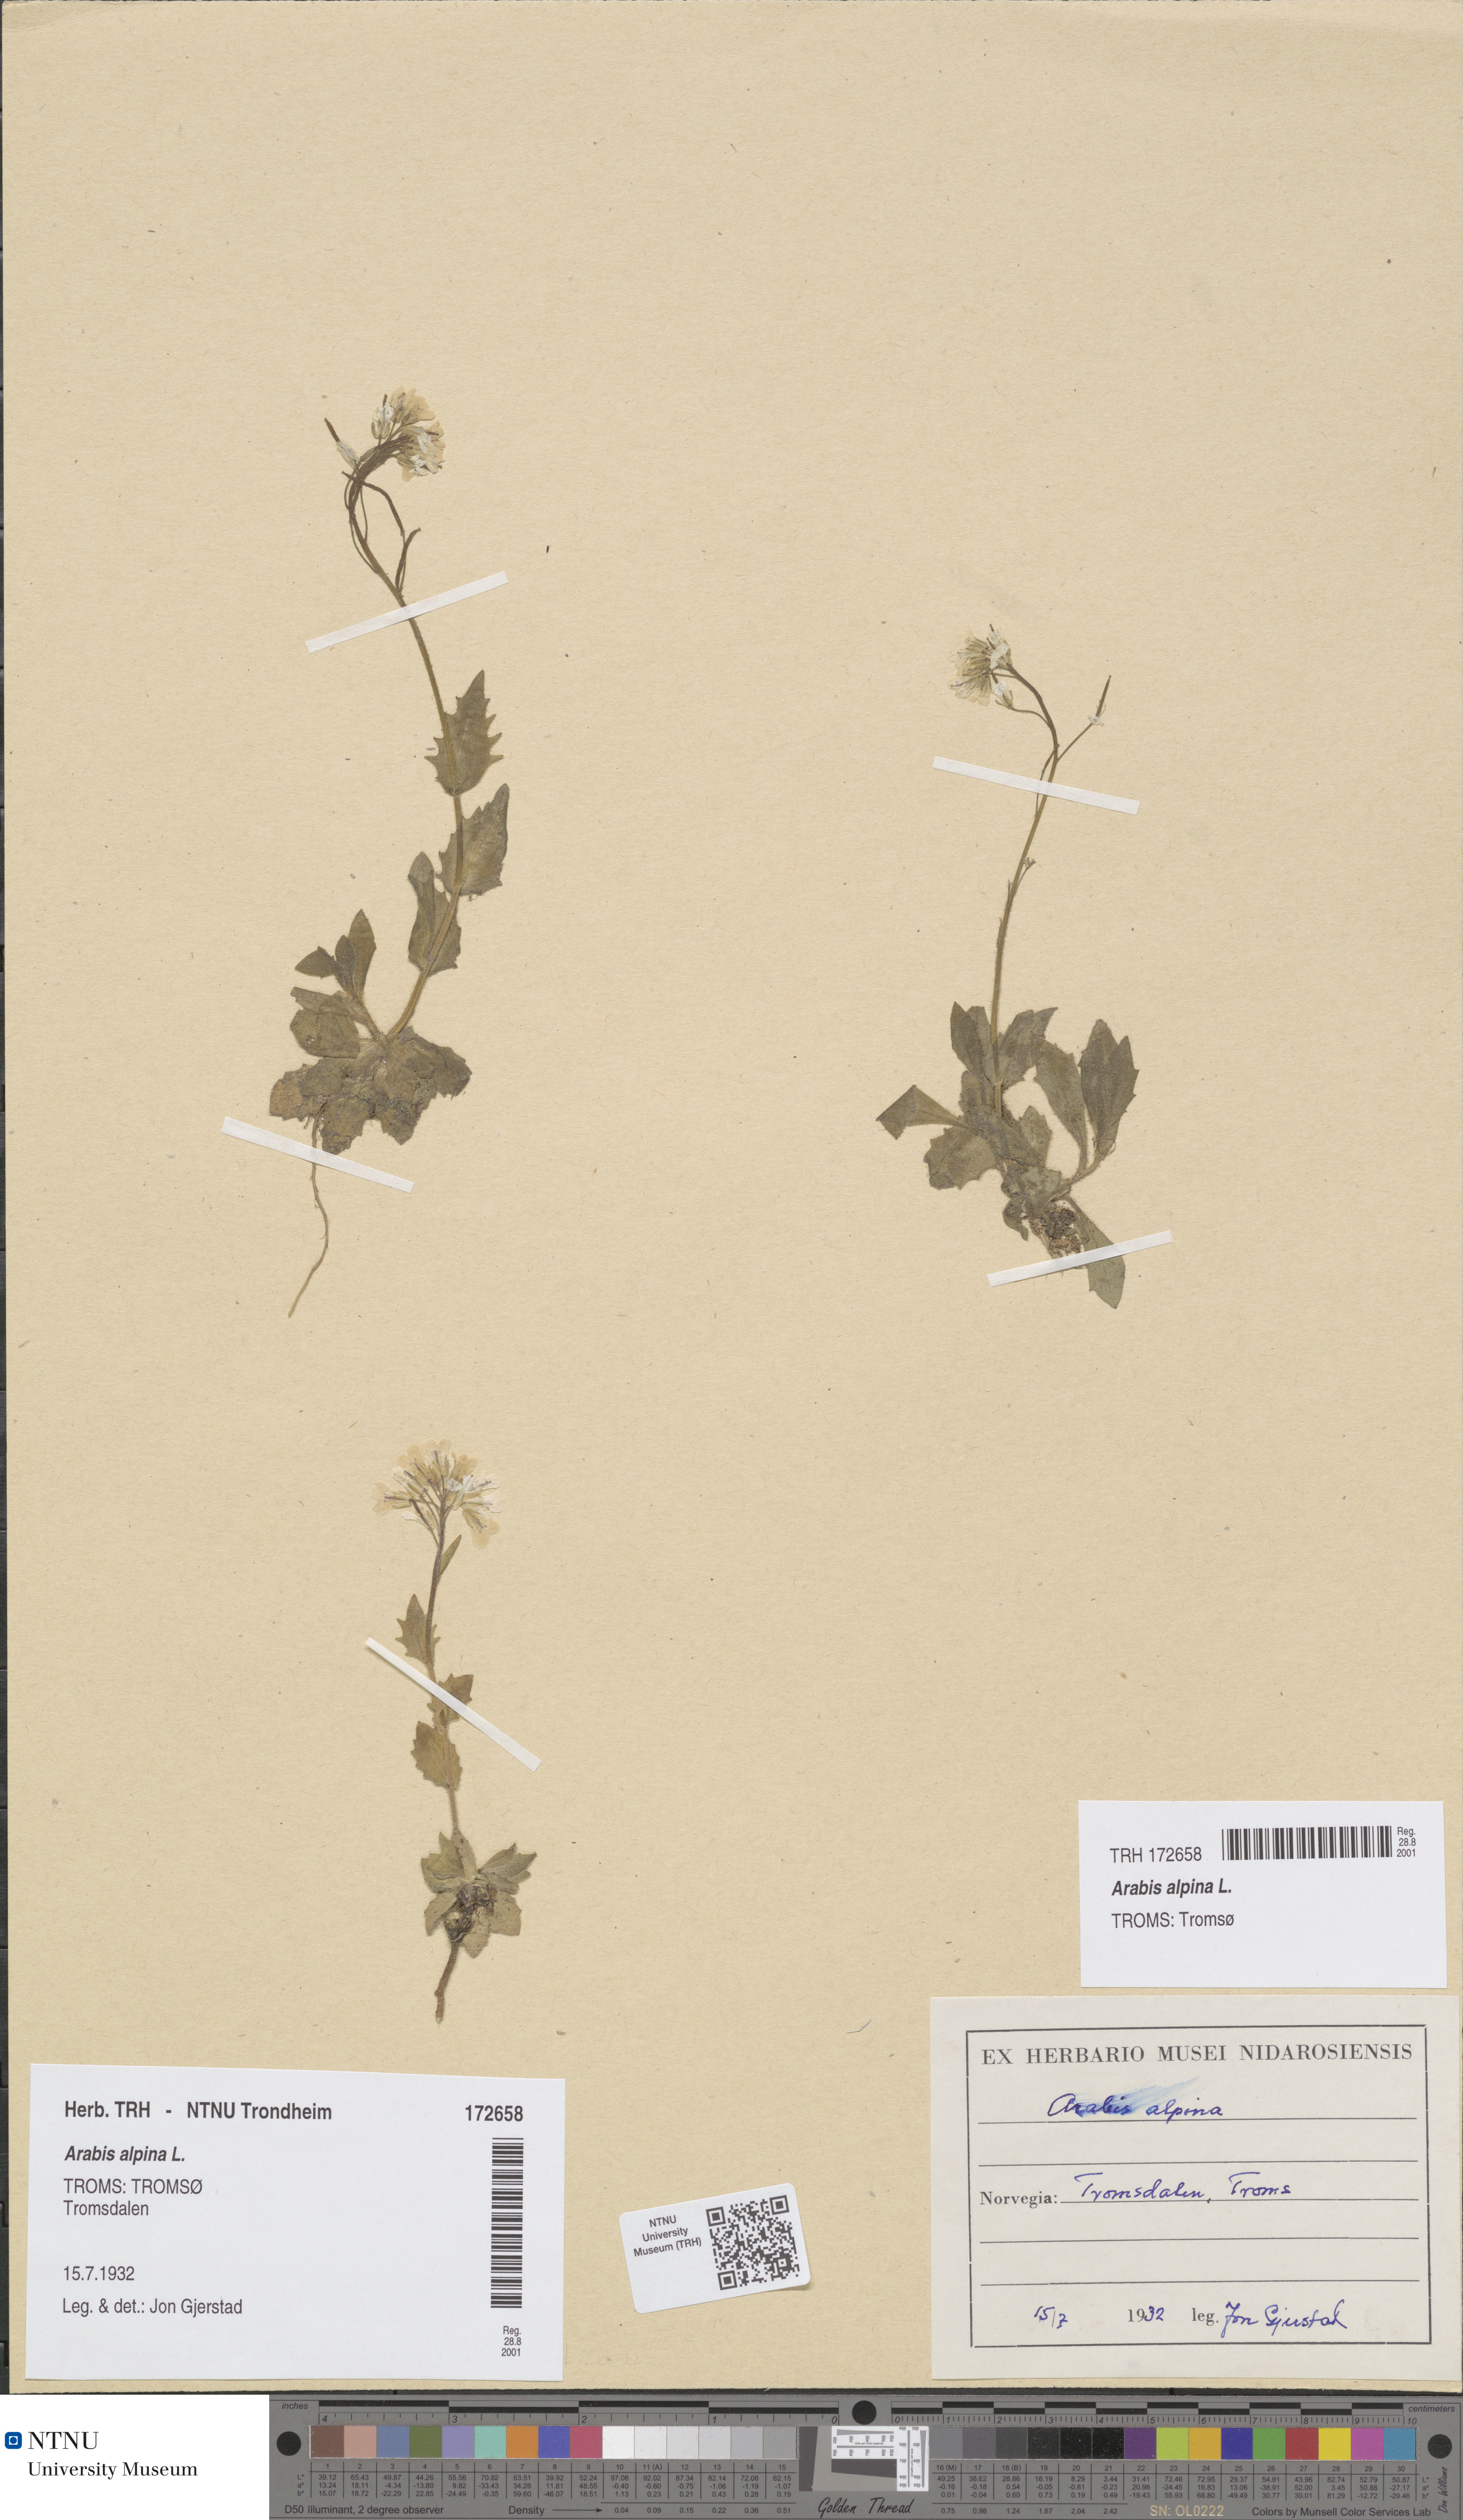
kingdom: Plantae
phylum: Tracheophyta
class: Magnoliopsida
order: Brassicales
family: Brassicaceae
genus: Arabis
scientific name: Arabis alpina
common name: Alpine rock-cress
